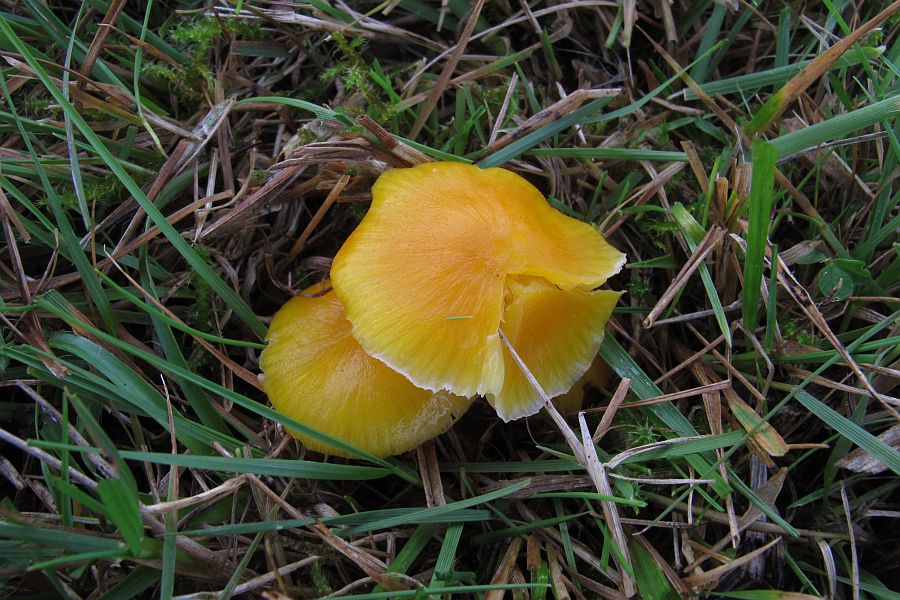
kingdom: Fungi
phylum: Basidiomycota
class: Agaricomycetes
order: Agaricales
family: Hygrophoraceae
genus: Hygrocybe
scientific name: Hygrocybe ceracea
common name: voksgul vokshat
